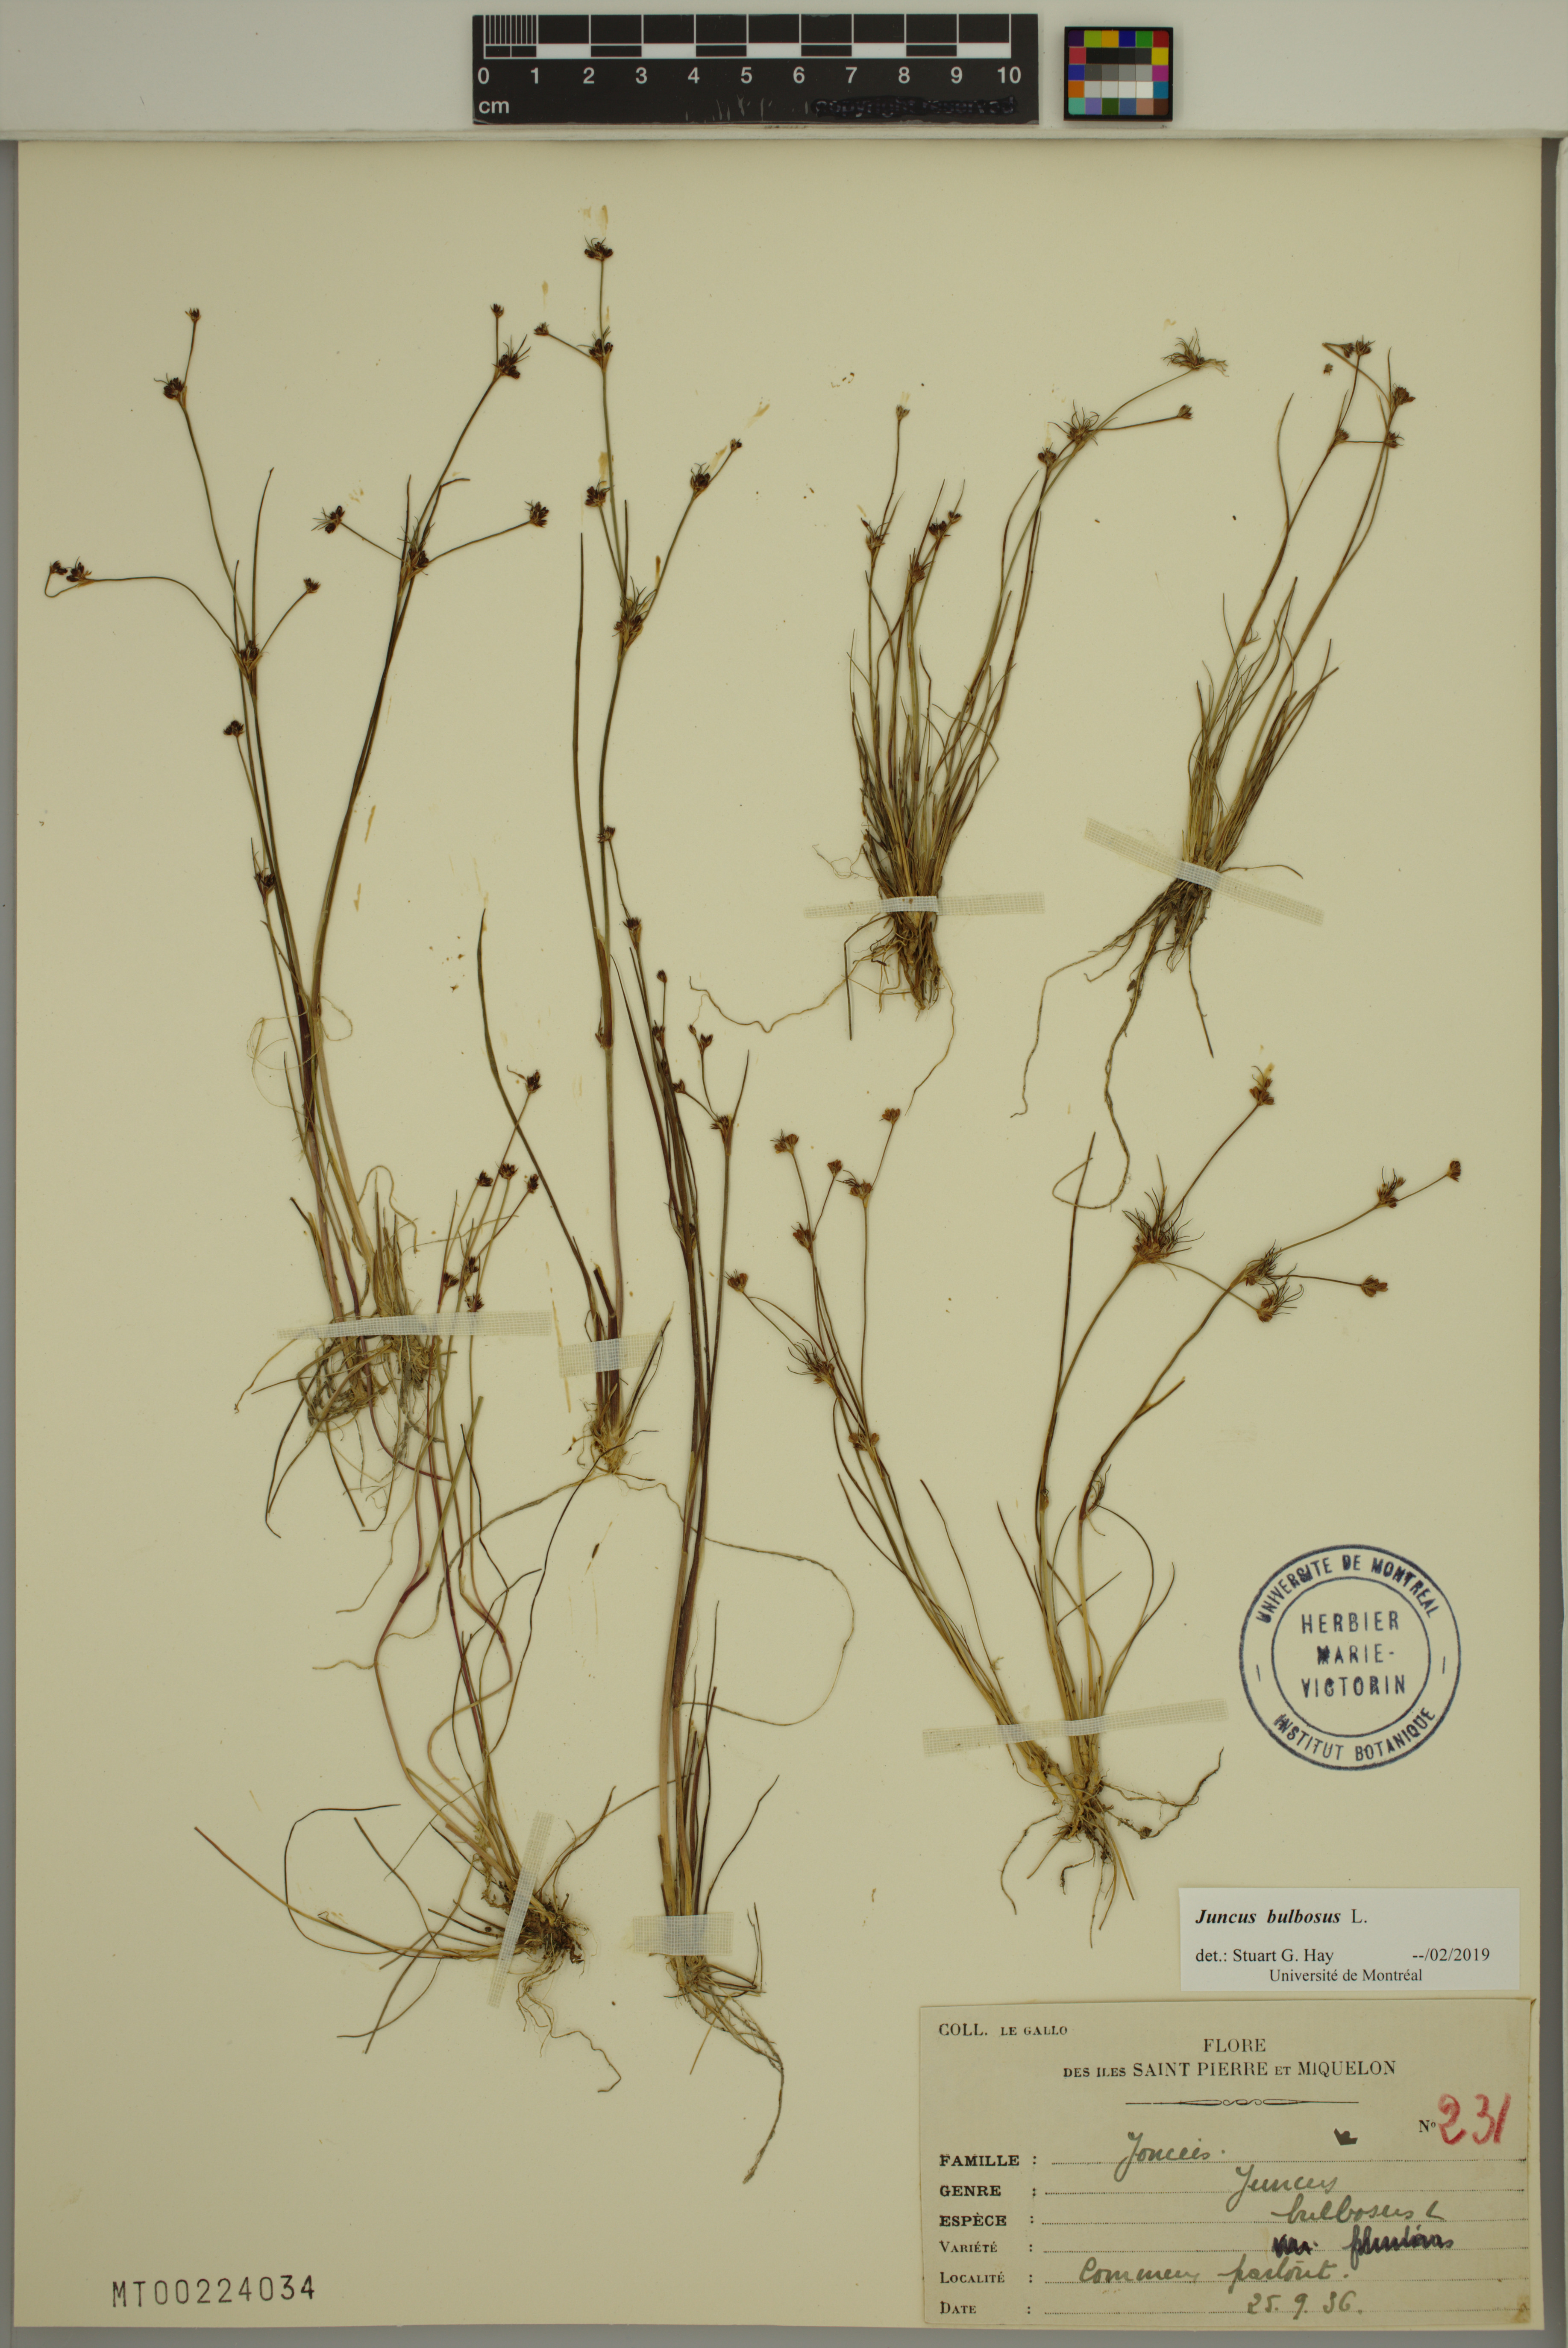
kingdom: Plantae
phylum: Tracheophyta
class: Liliopsida
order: Poales
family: Juncaceae
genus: Juncus
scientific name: Juncus bulbosus
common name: Bulbous rush
